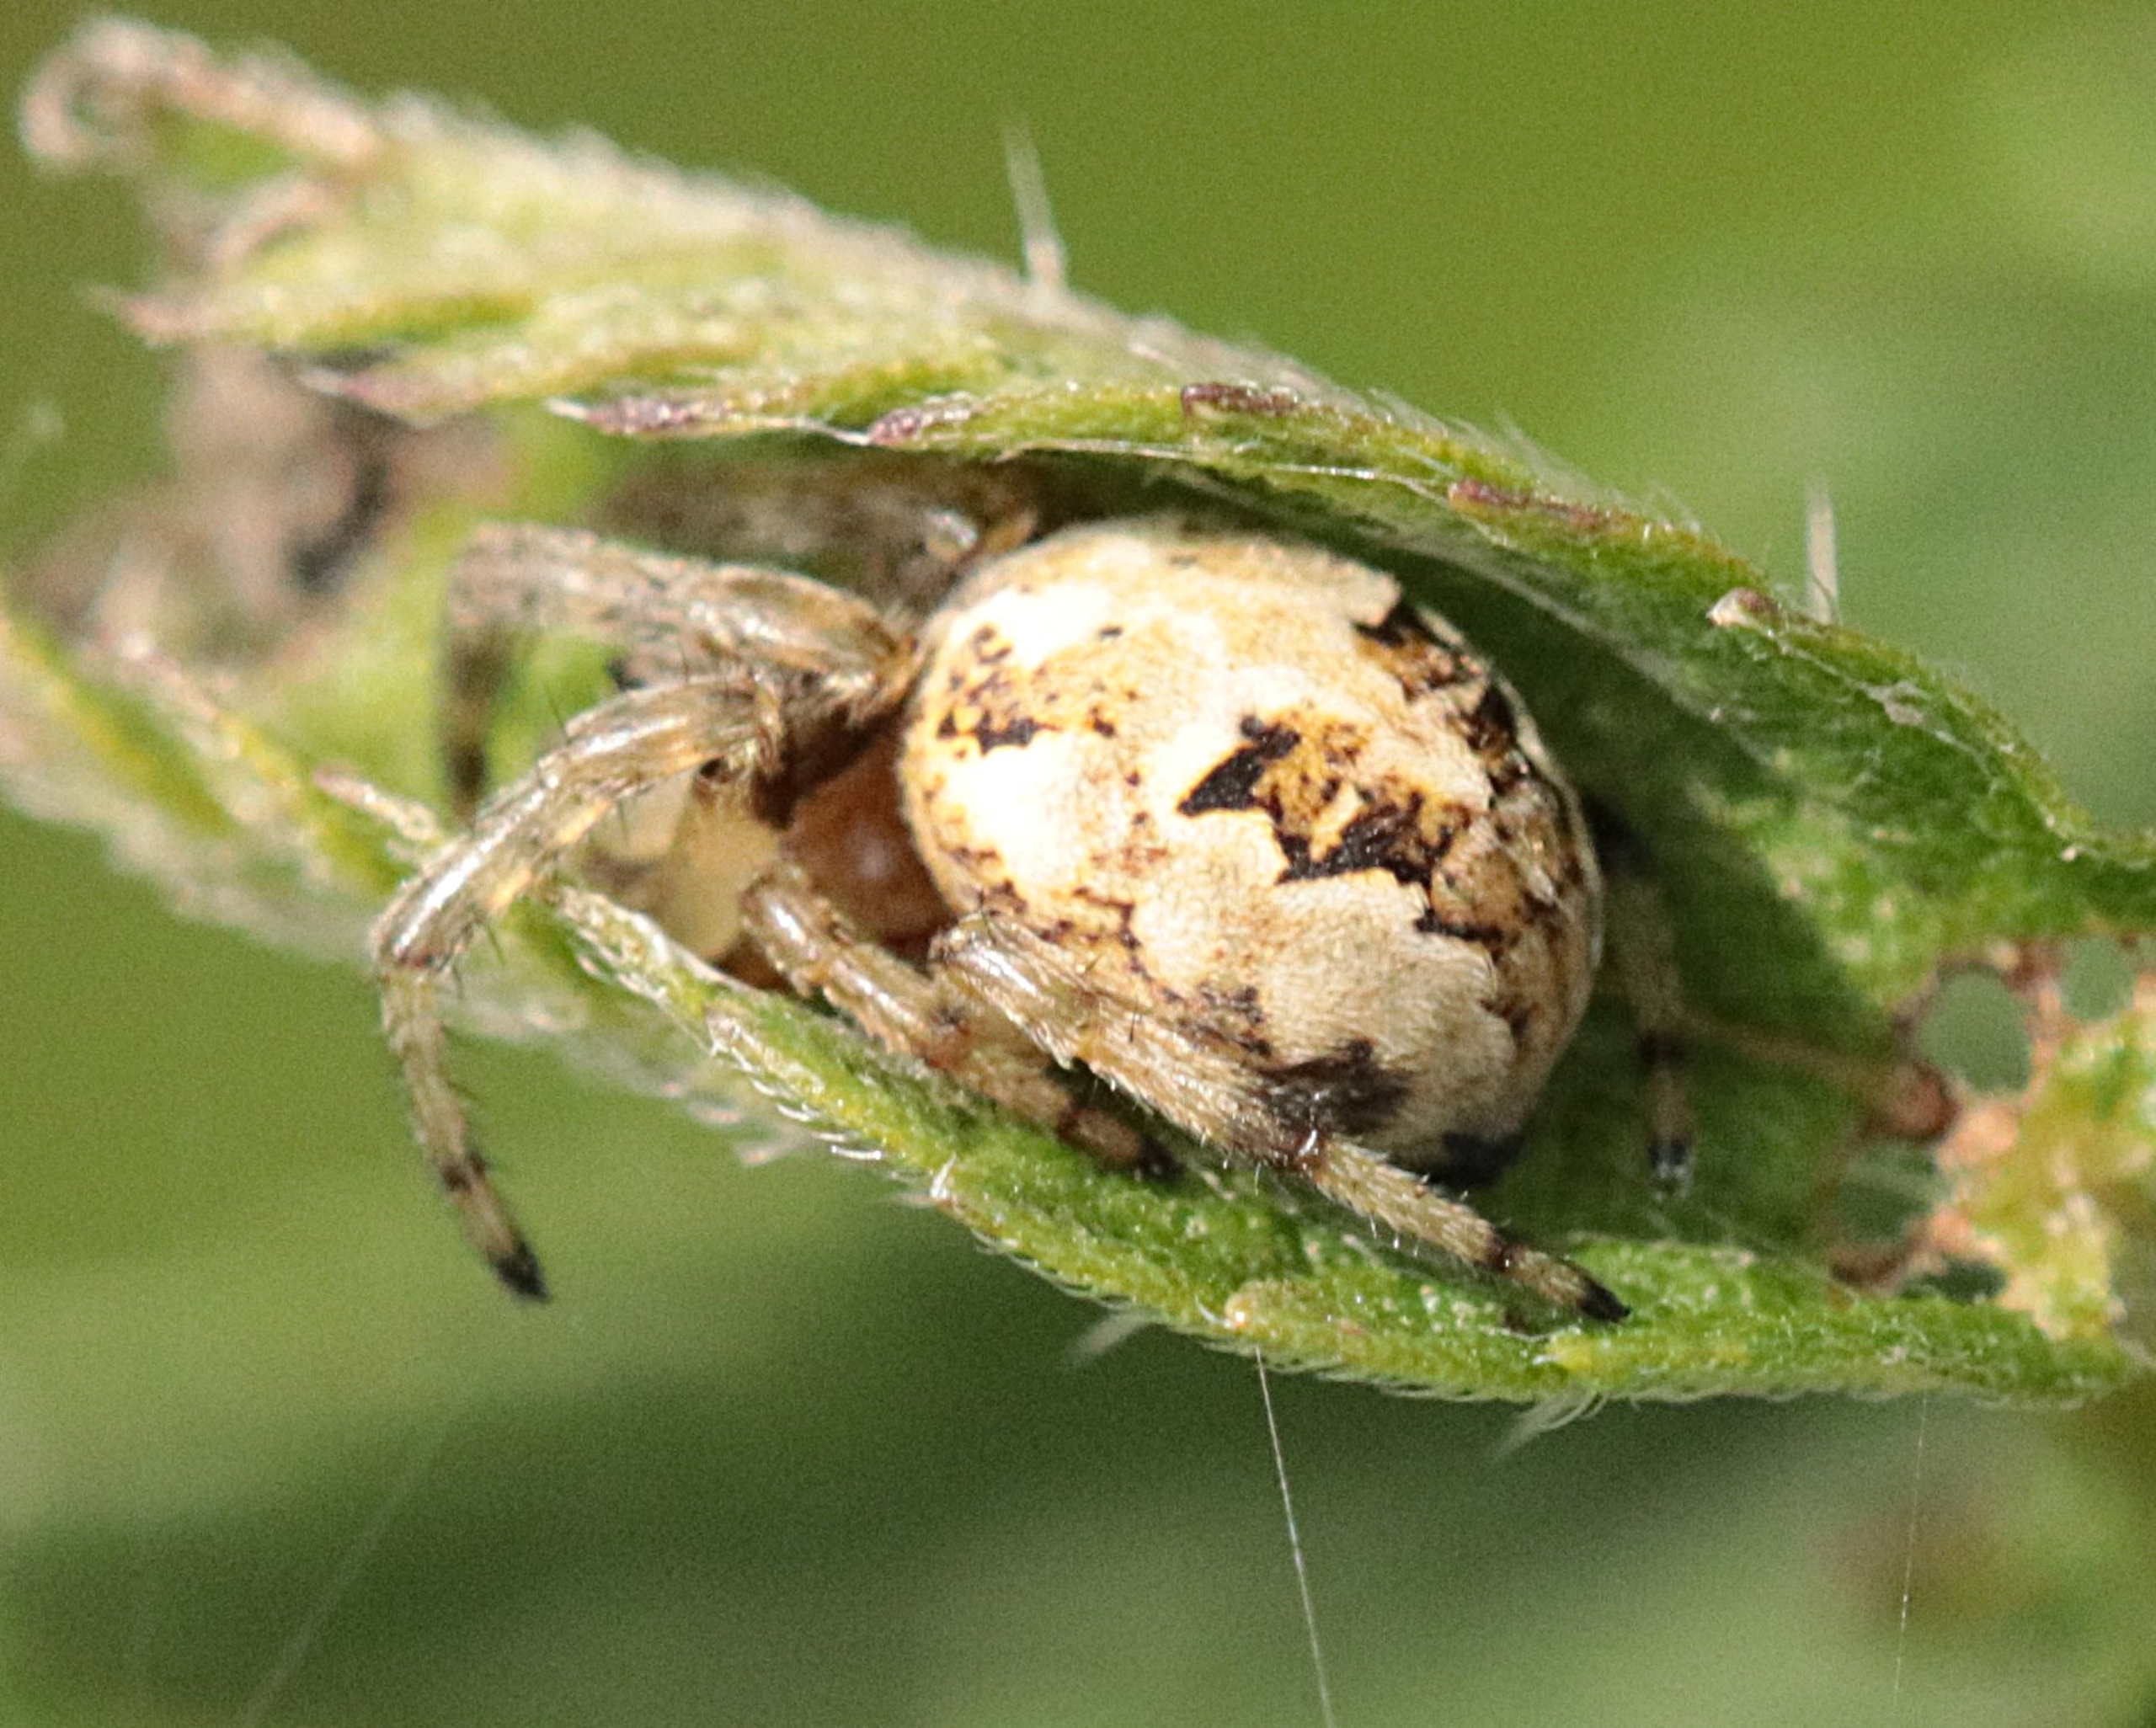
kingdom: Animalia
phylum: Arthropoda
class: Arachnida
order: Araneae
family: Araneidae
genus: Larinioides
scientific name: Larinioides cornutus
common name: Sivhjulspinder
